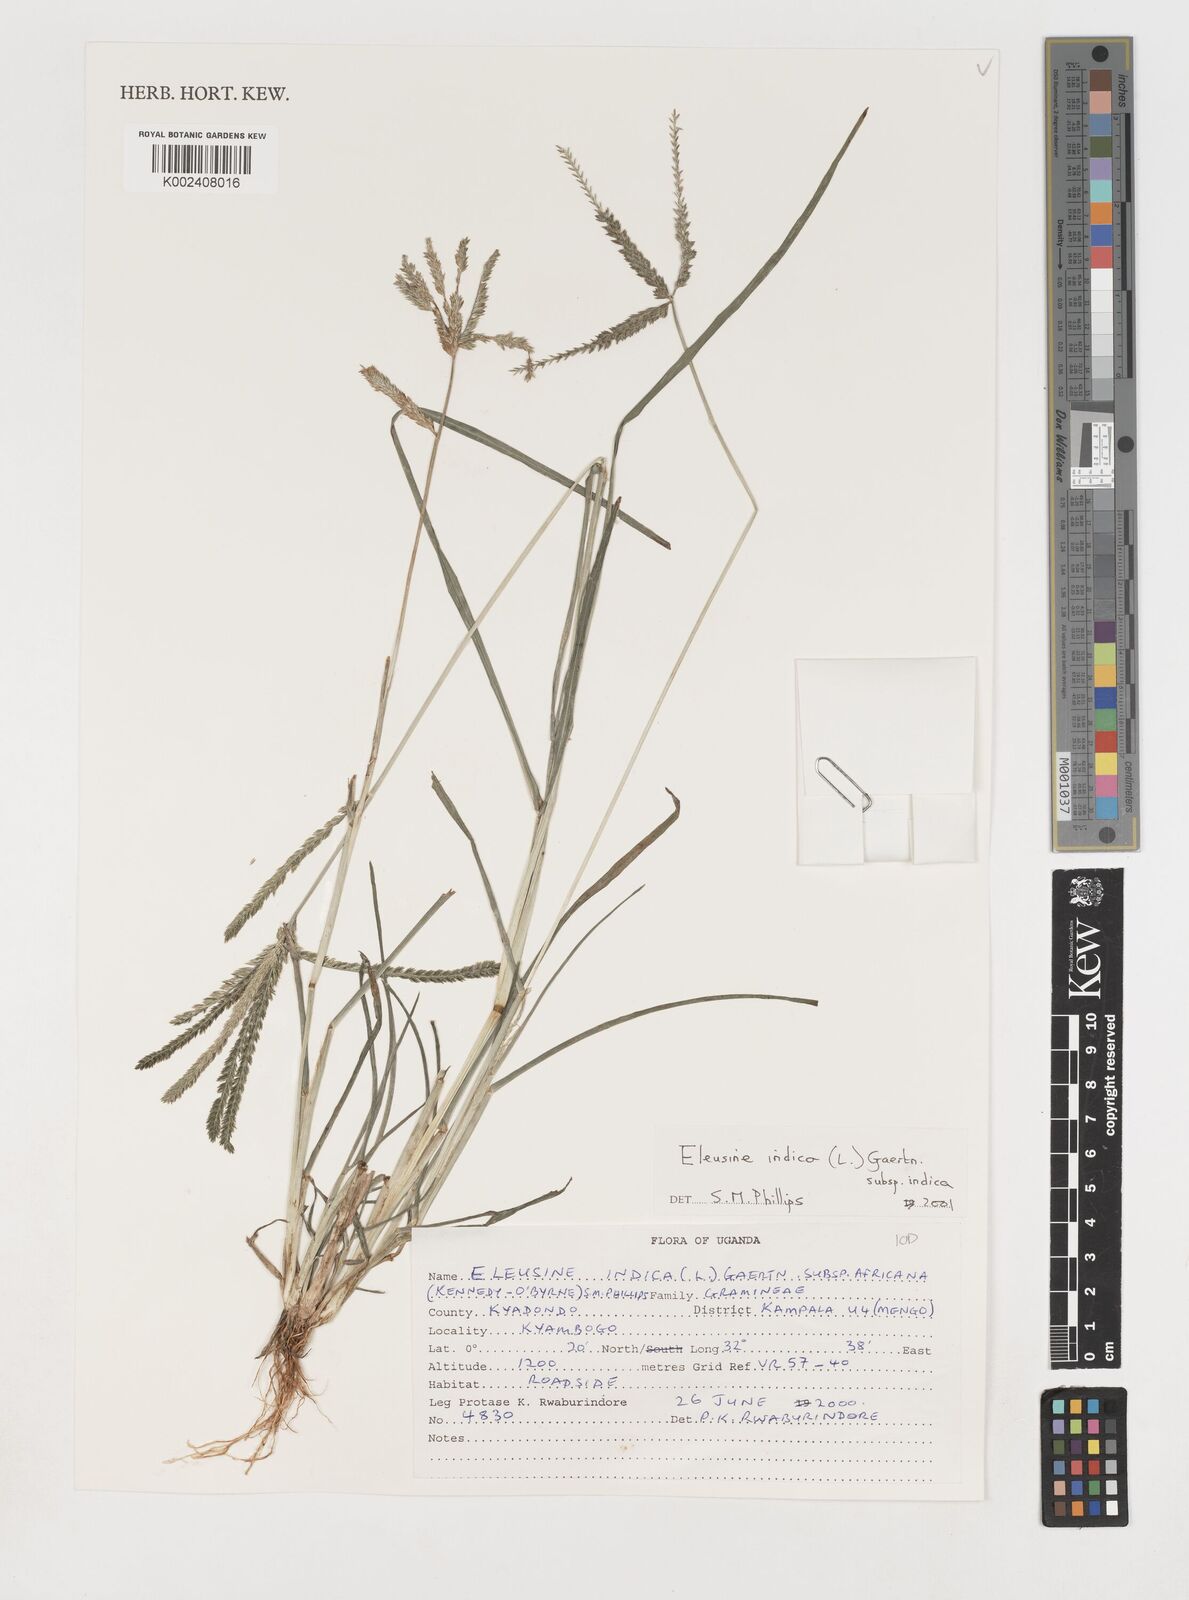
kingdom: Plantae
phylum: Tracheophyta
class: Liliopsida
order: Poales
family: Poaceae
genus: Eleusine
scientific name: Eleusine indica
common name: Yard-grass
